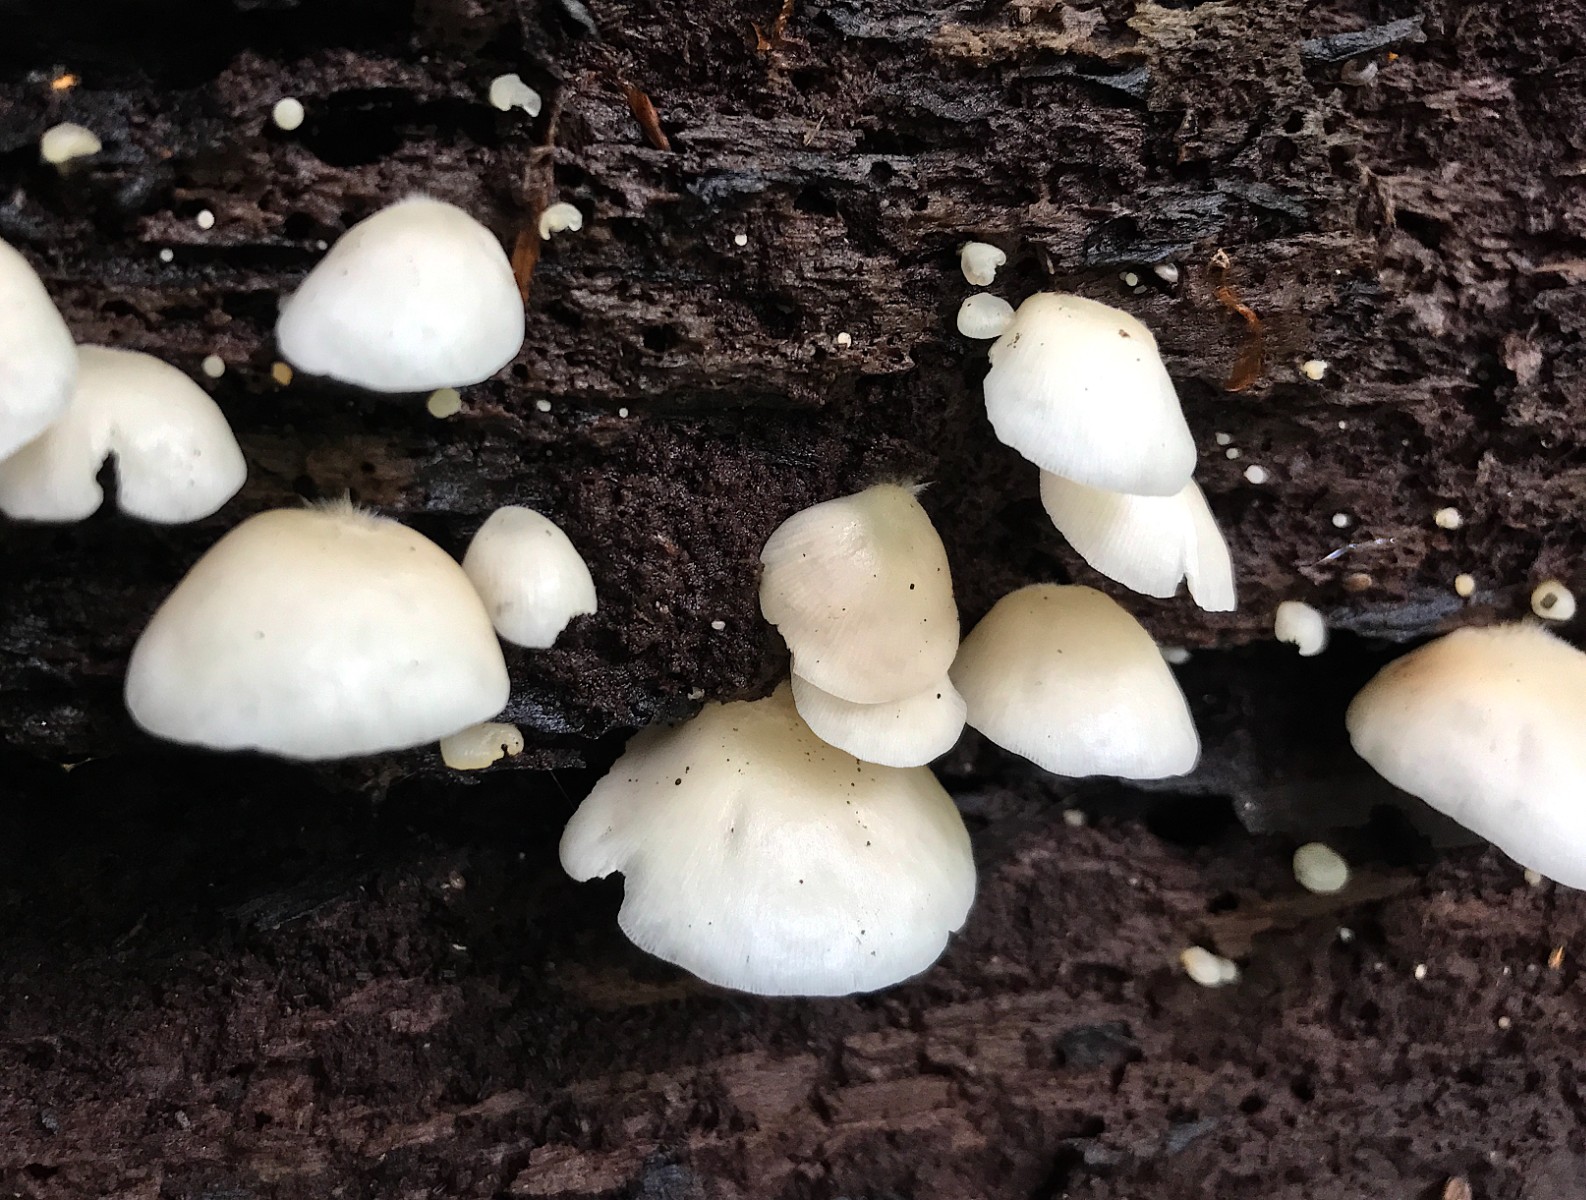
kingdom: Fungi
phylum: Basidiomycota
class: Agaricomycetes
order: Agaricales
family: Crepidotaceae
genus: Crepidotus
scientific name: Crepidotus applanatus
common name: tvefarvet muslingesvamp
